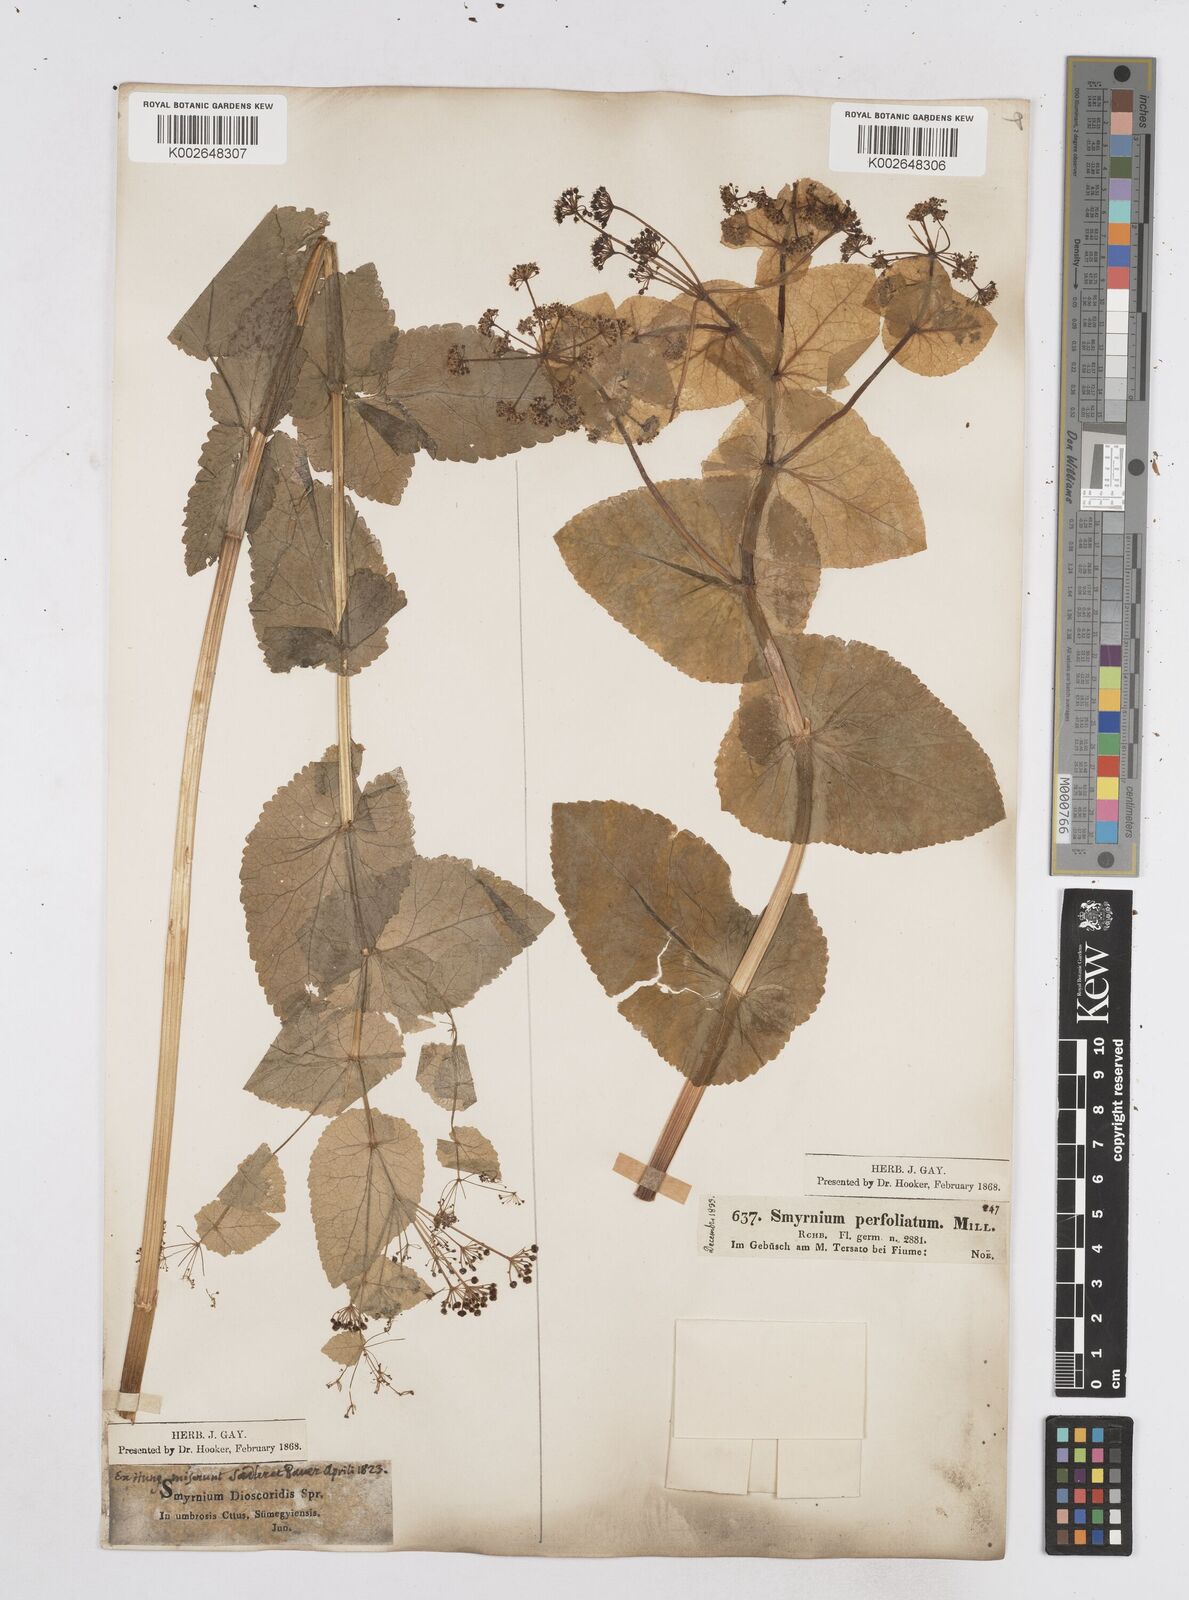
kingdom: Plantae
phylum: Tracheophyta
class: Magnoliopsida
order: Apiales
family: Apiaceae
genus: Smyrnium
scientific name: Smyrnium perfoliatum
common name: Perfoliate alexanders
